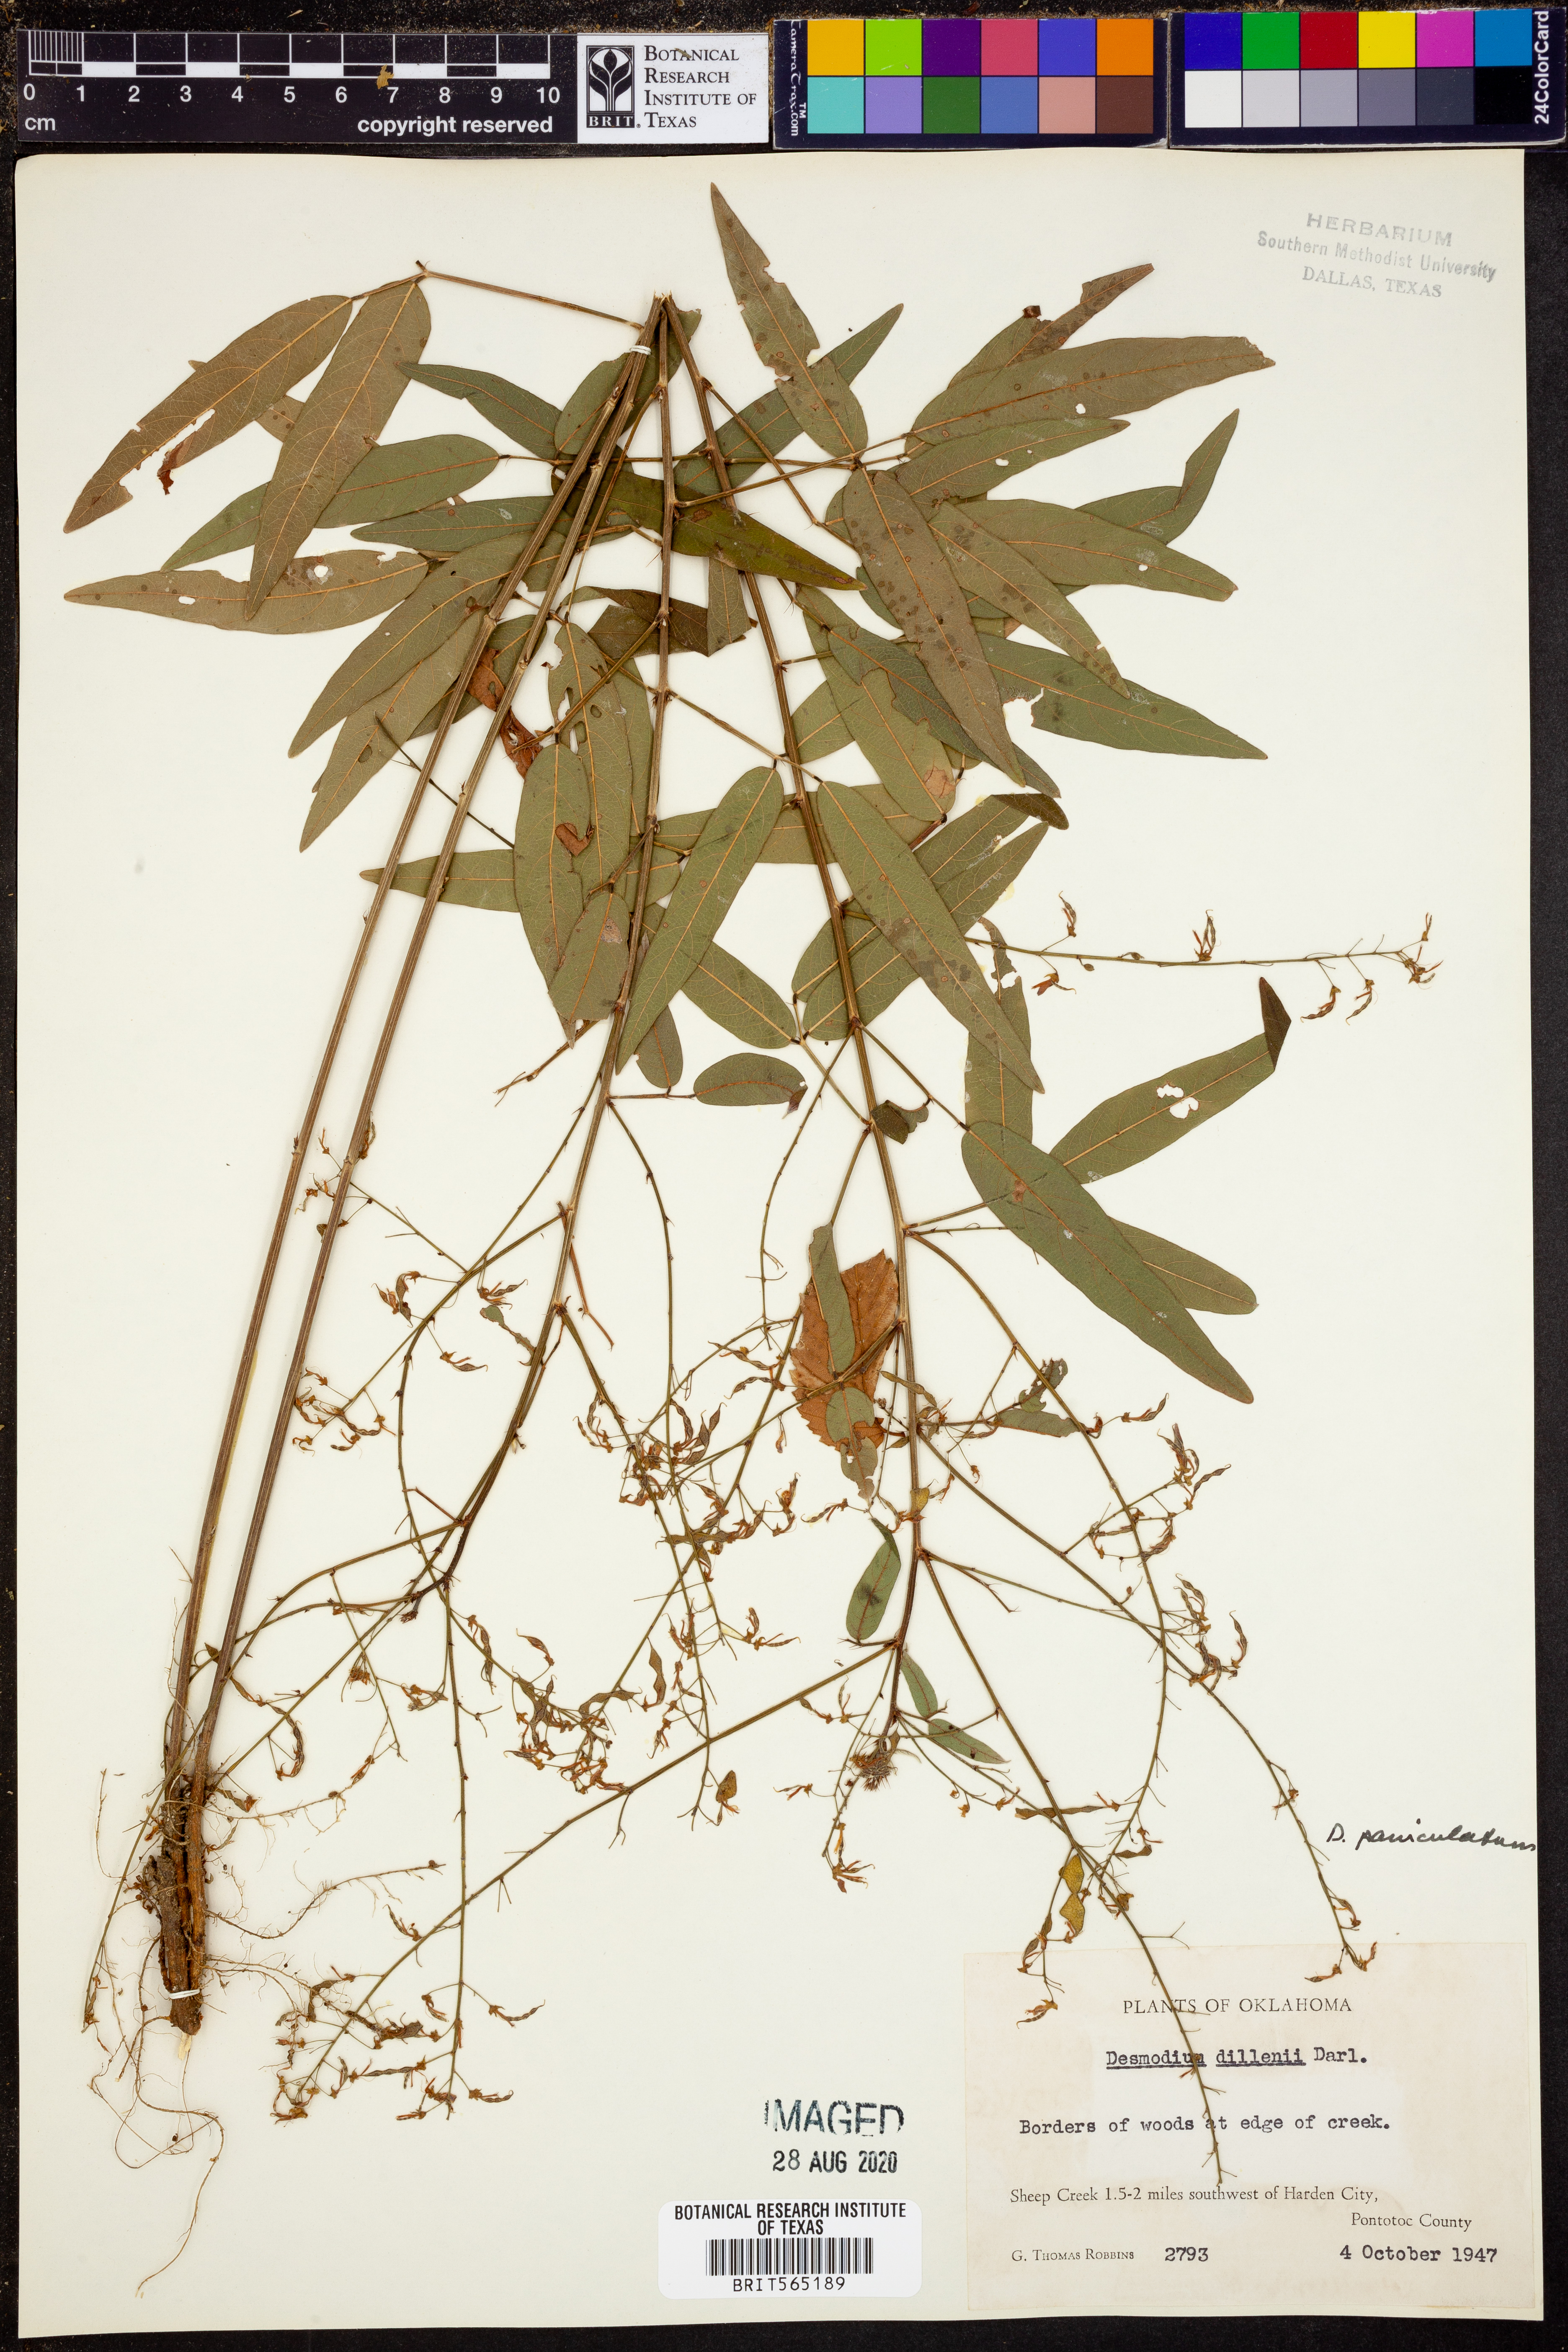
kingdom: Plantae
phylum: Tracheophyta
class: Magnoliopsida
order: Fabales
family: Fabaceae
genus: Desmodium
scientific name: Desmodium paniculatum
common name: Panicled tick-clover
